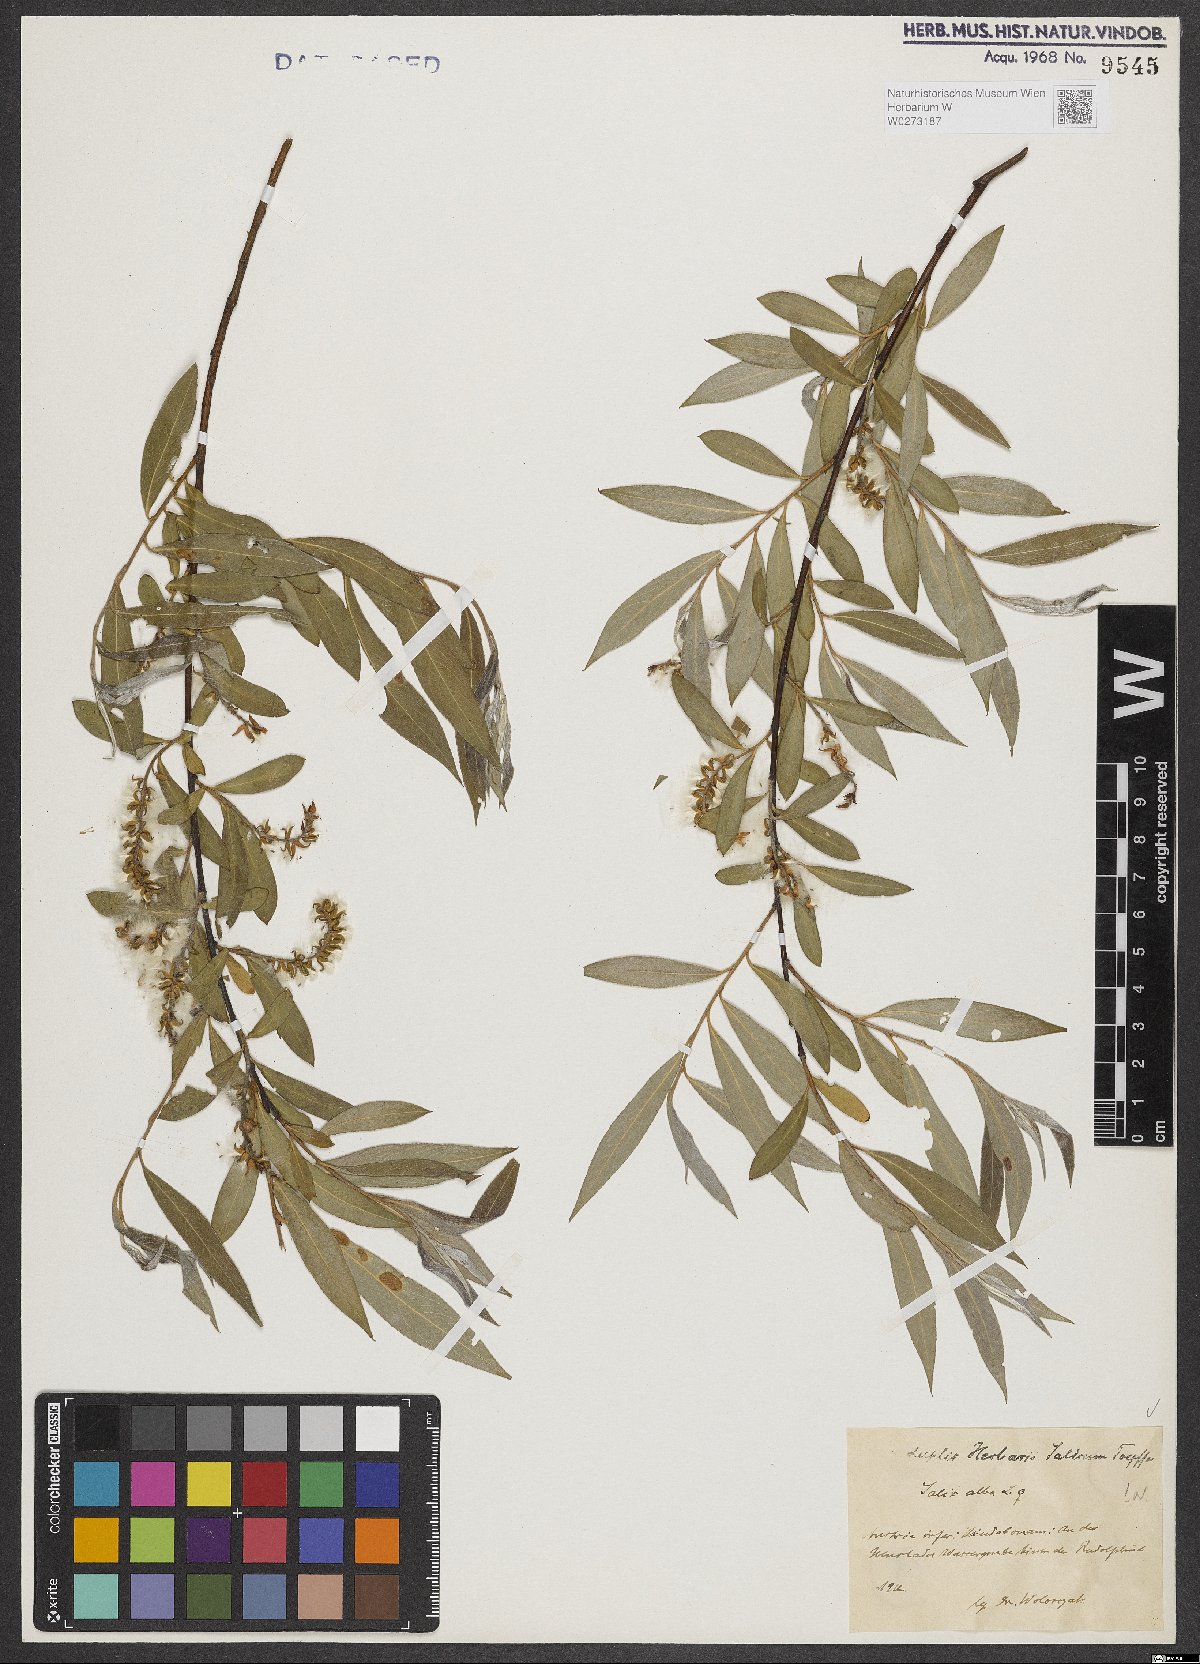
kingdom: Plantae
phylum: Tracheophyta
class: Magnoliopsida
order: Malpighiales
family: Salicaceae
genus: Salix
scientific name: Salix alba
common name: White willow
